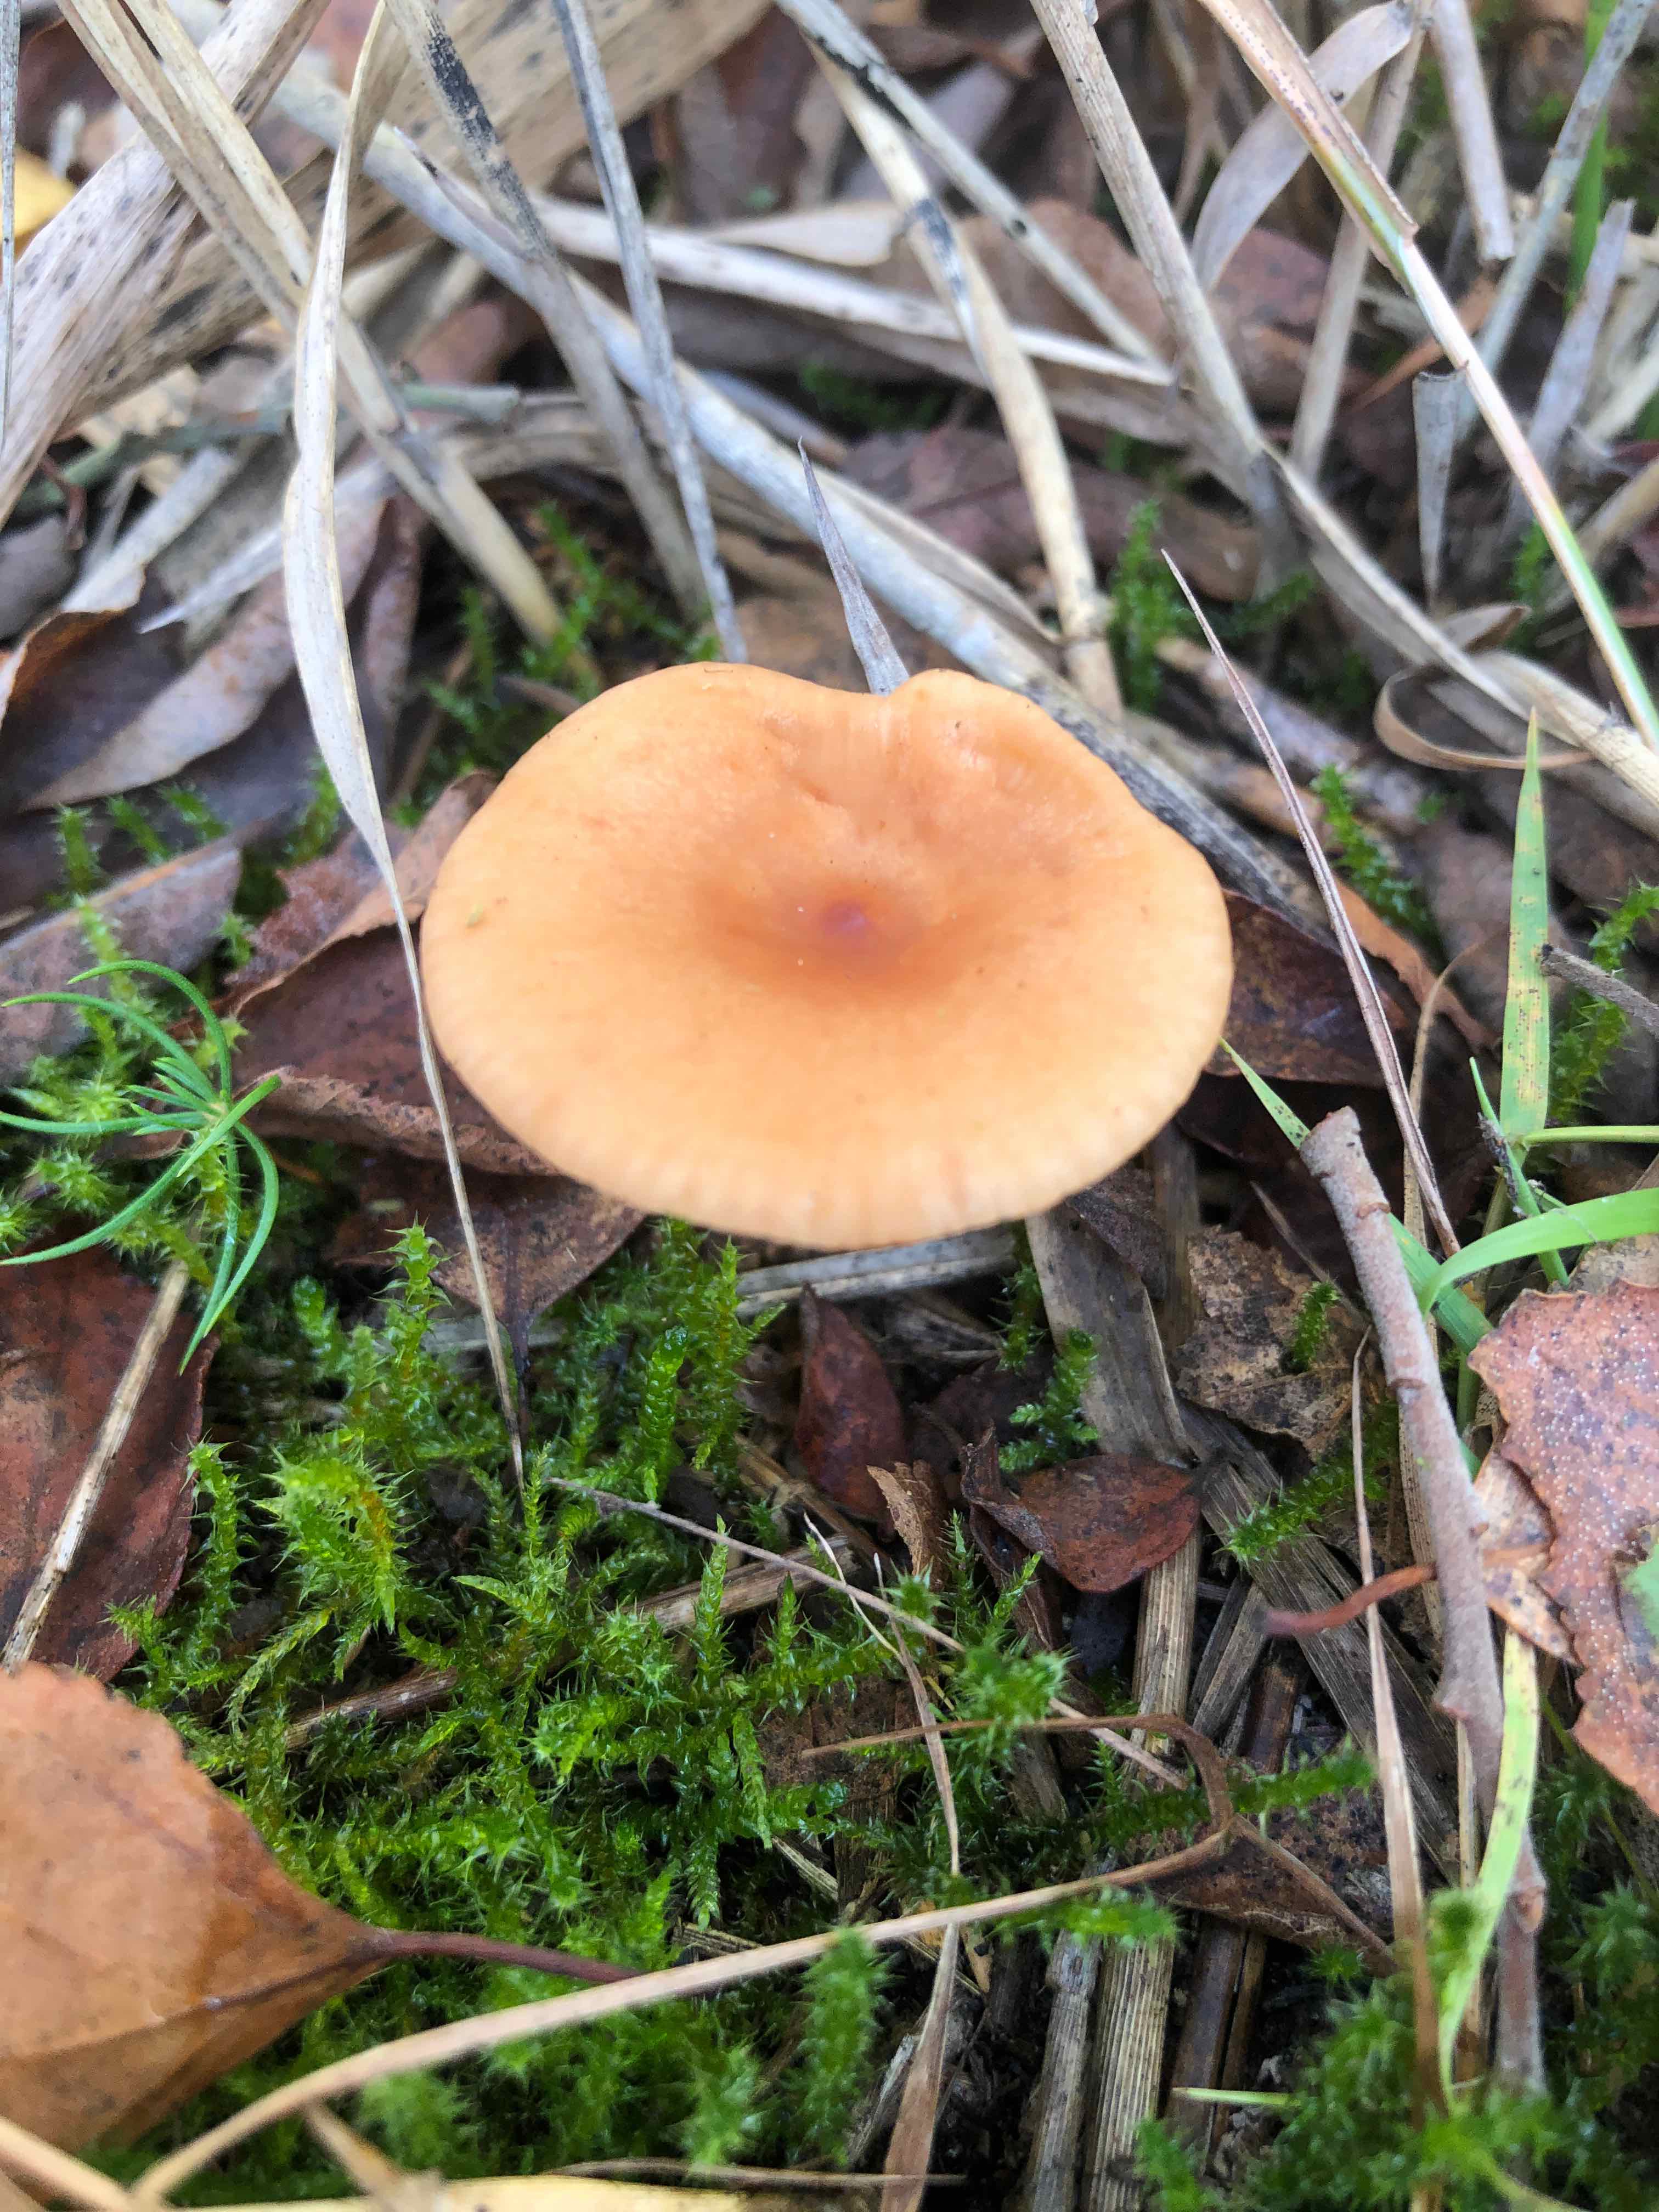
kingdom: Fungi
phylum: Basidiomycota
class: Agaricomycetes
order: Russulales
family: Russulaceae
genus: Lactarius
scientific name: Lactarius aurantiacus
